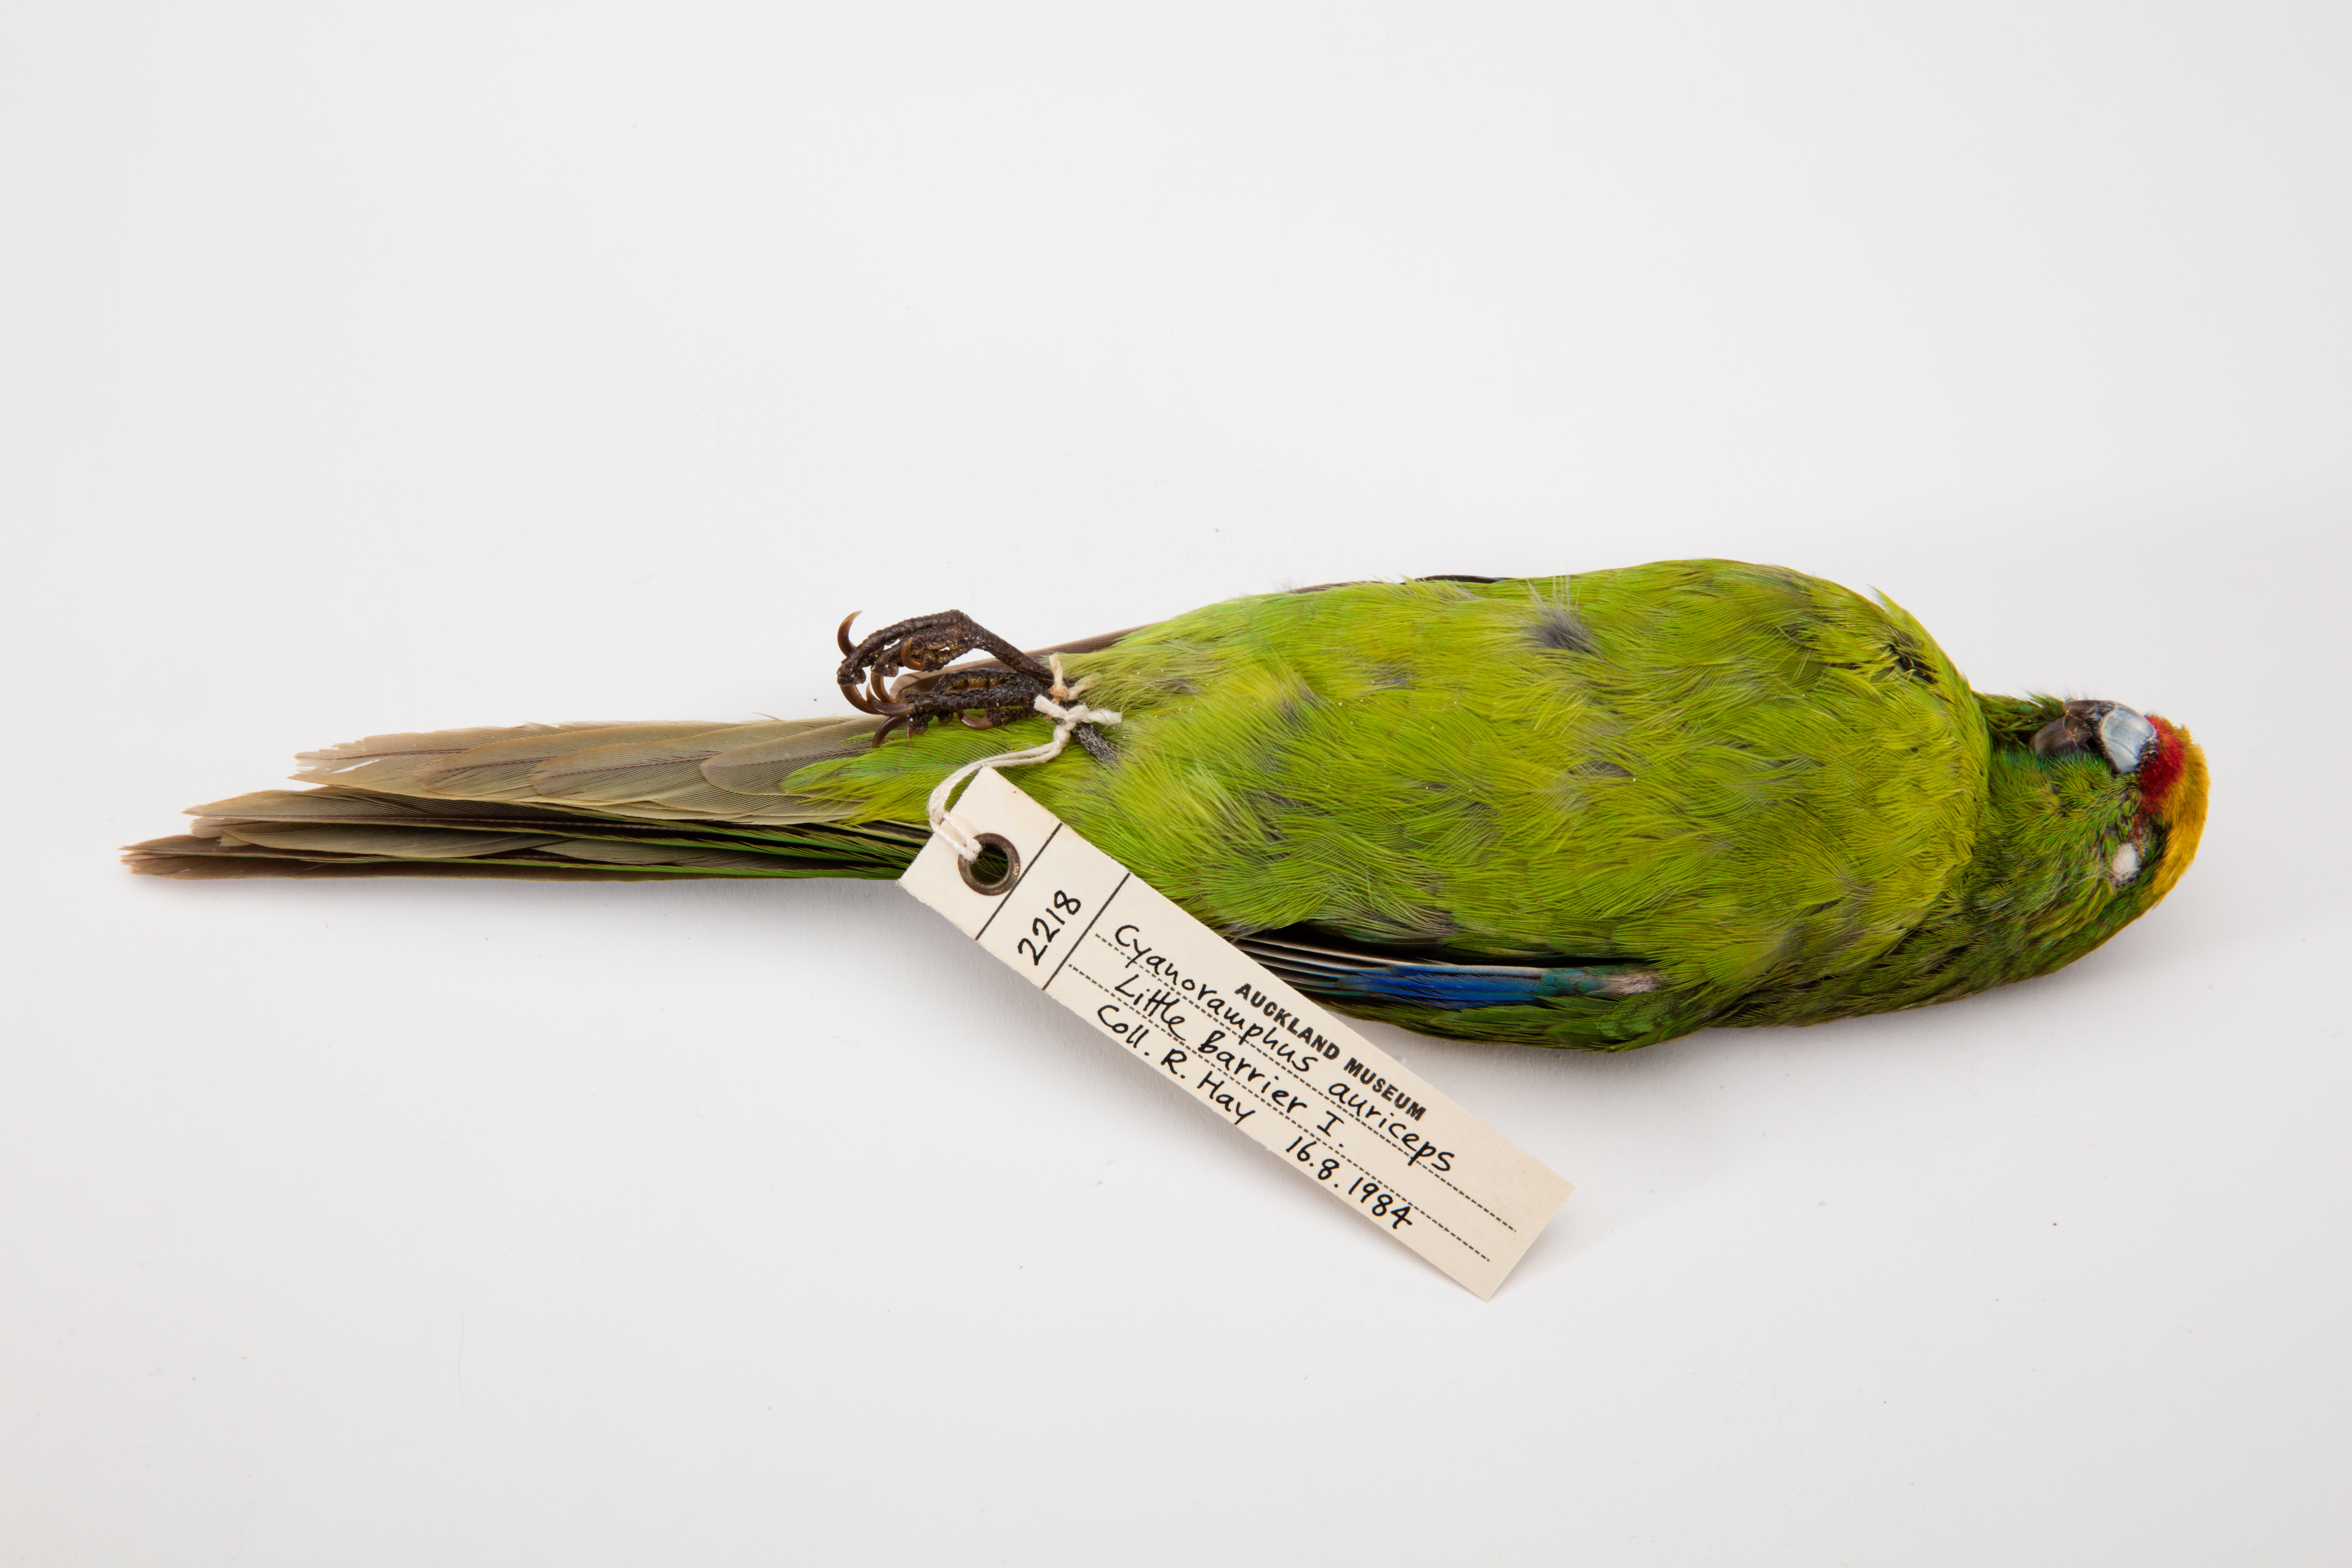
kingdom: Animalia
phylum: Chordata
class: Aves
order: Psittaciformes
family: Psittacidae
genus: Cyanoramphus
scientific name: Cyanoramphus auriceps
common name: Yellow-crowned parakeet
